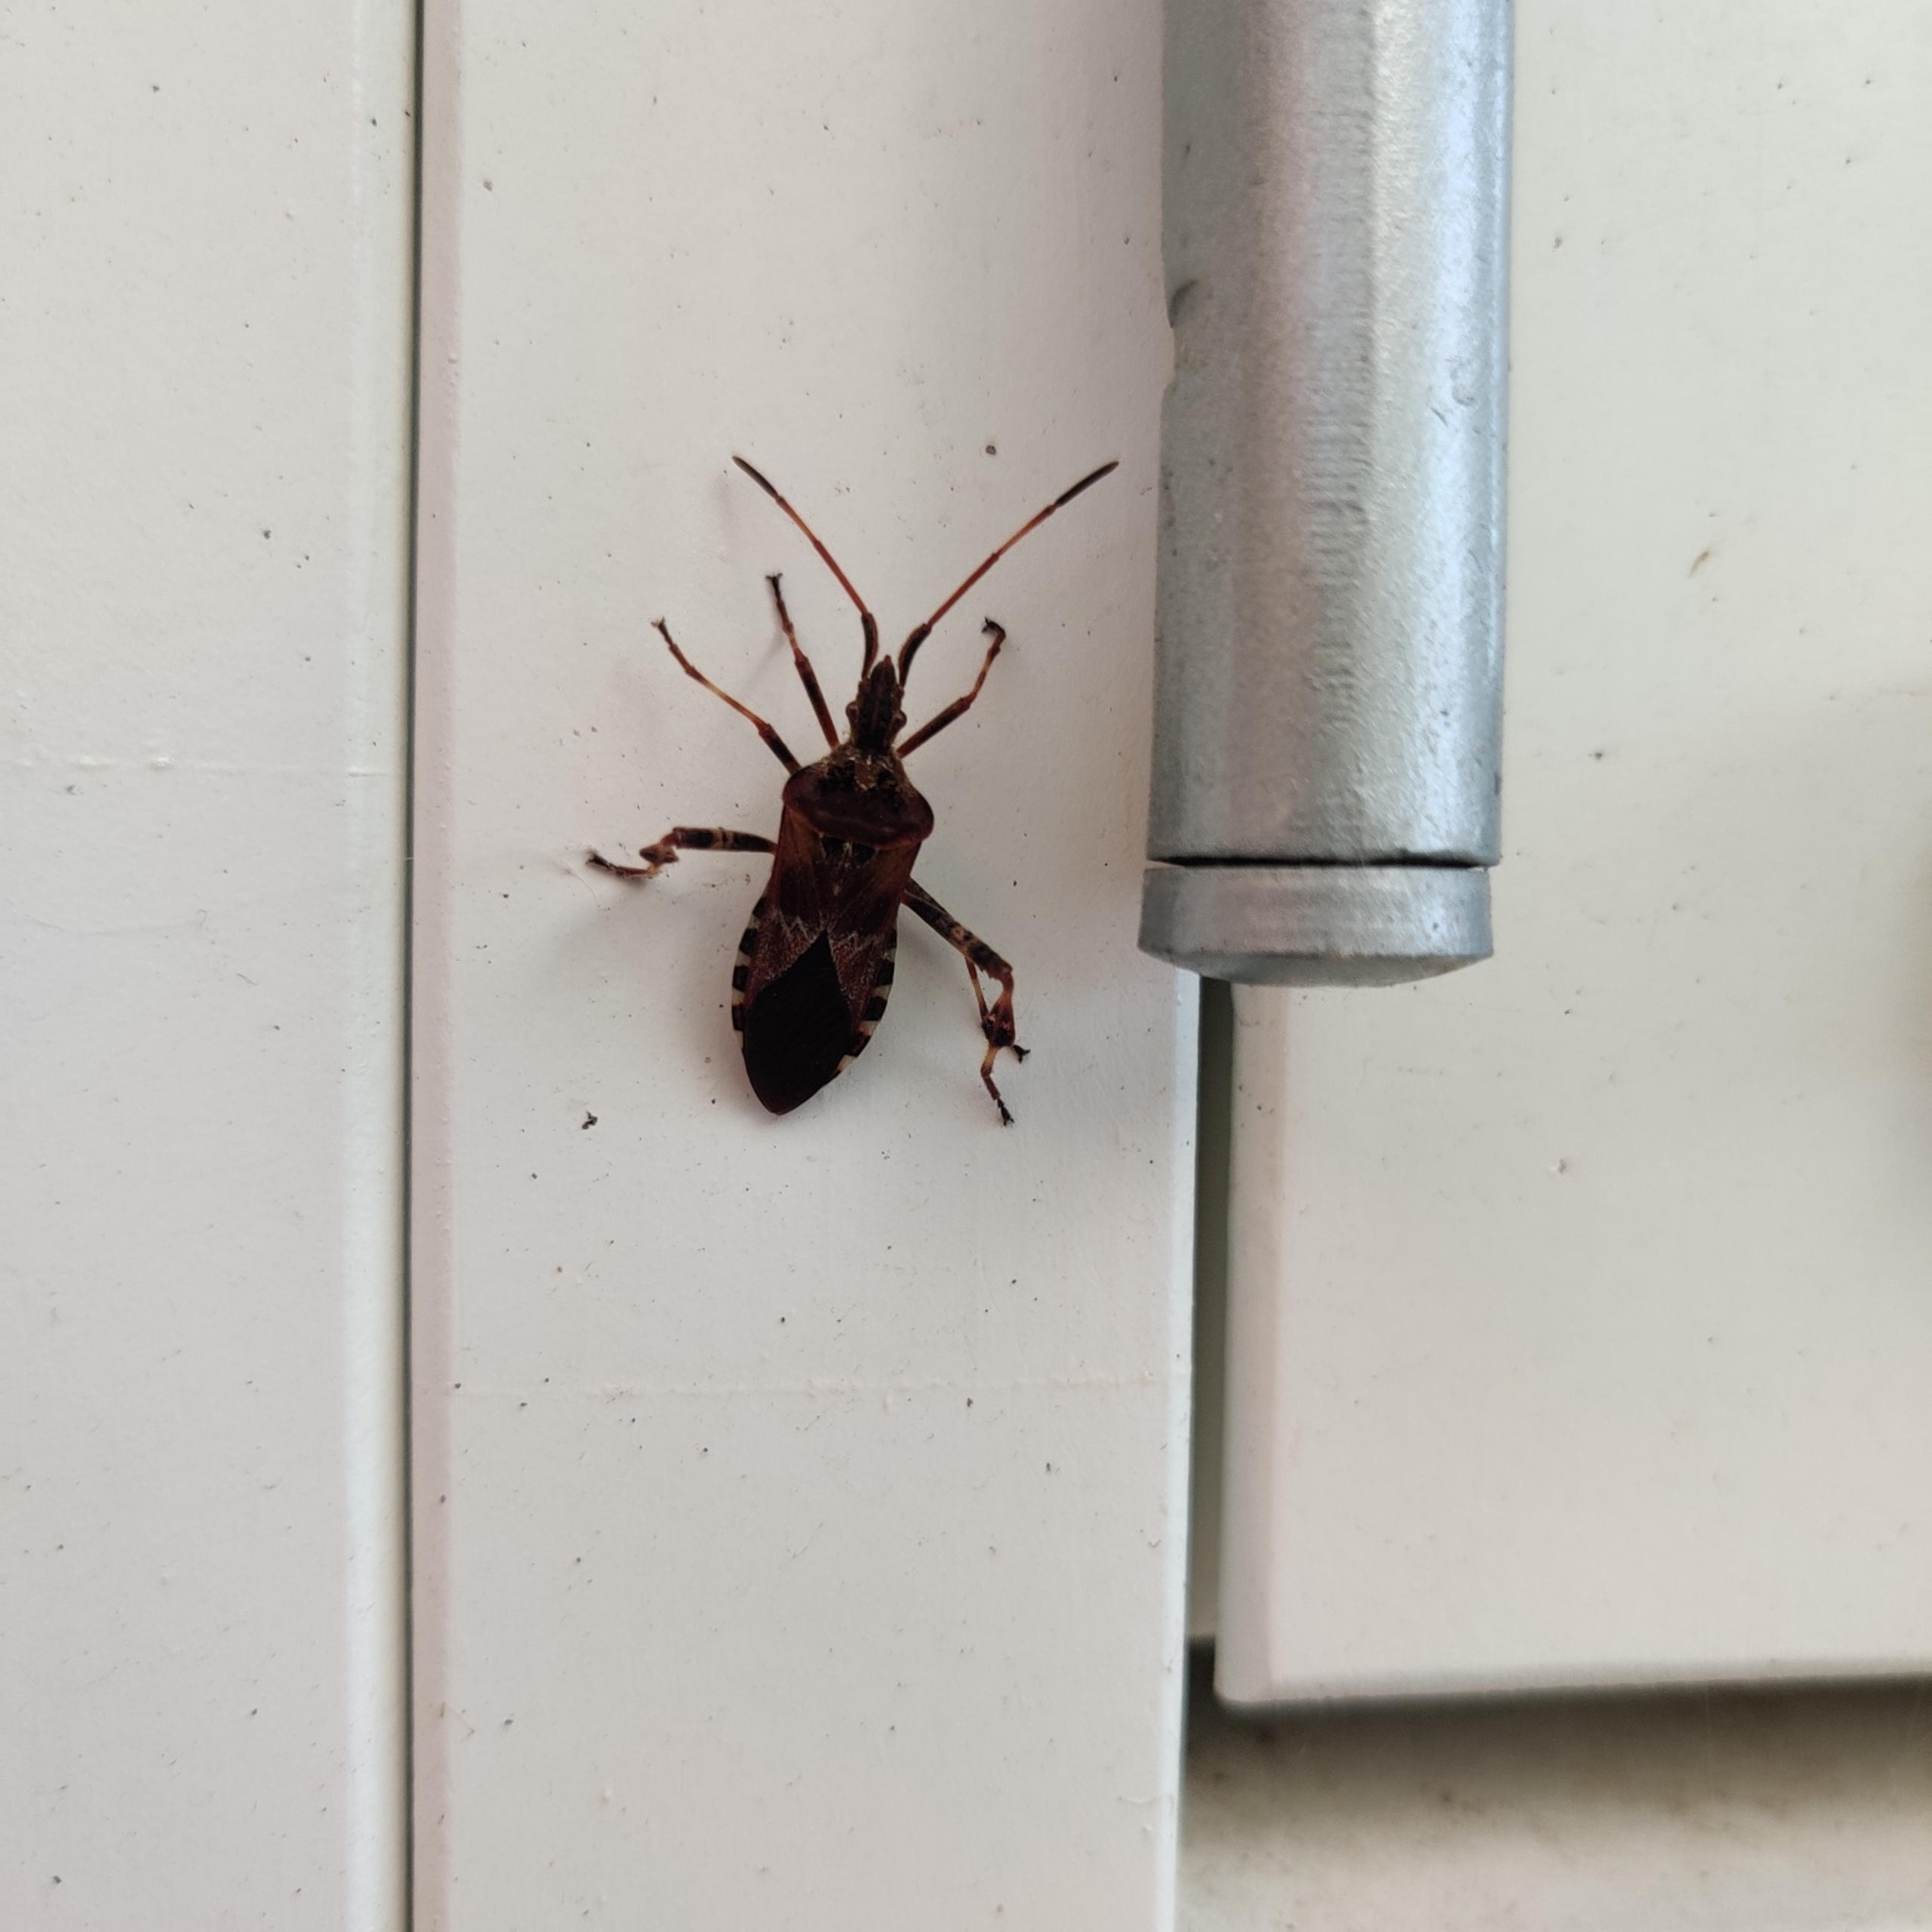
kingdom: Animalia
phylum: Arthropoda
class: Insecta
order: Hemiptera
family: Coreidae
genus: Leptoglossus
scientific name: Leptoglossus occidentalis
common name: Amerikansk fyrretæge
